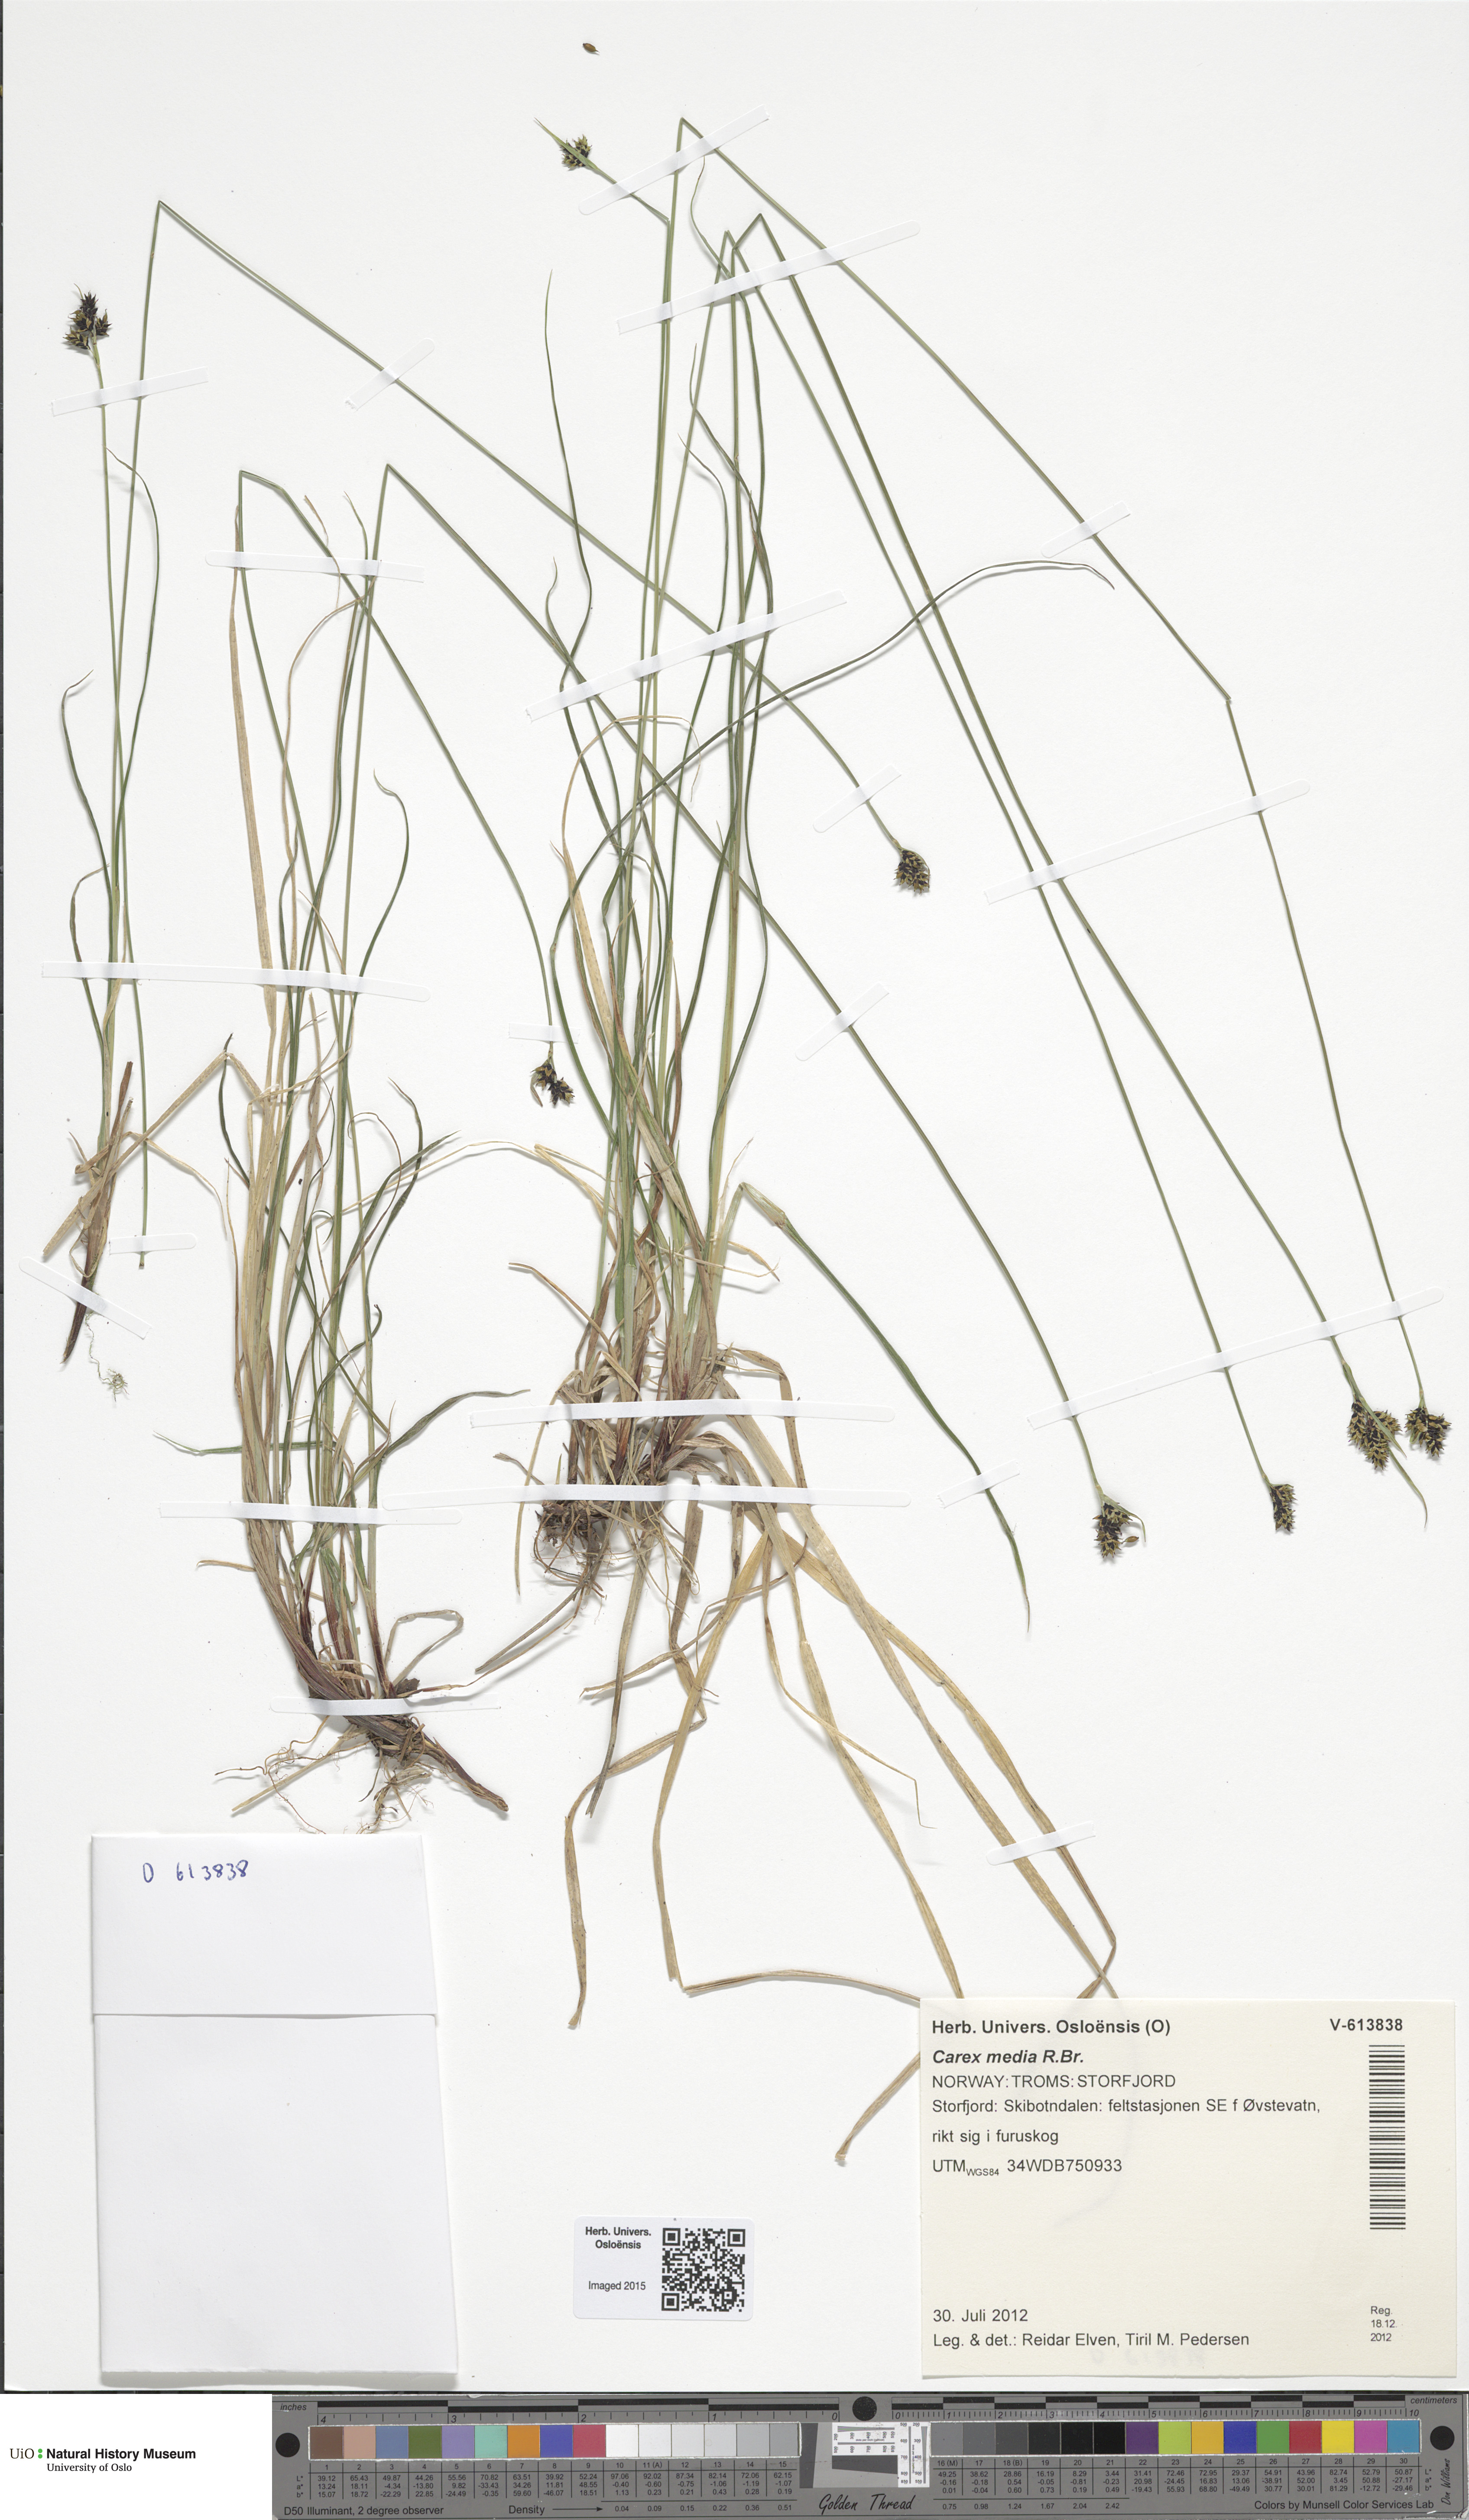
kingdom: Plantae
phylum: Tracheophyta
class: Liliopsida
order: Poales
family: Cyperaceae
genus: Carex
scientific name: Carex media
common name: Alpine sedge
